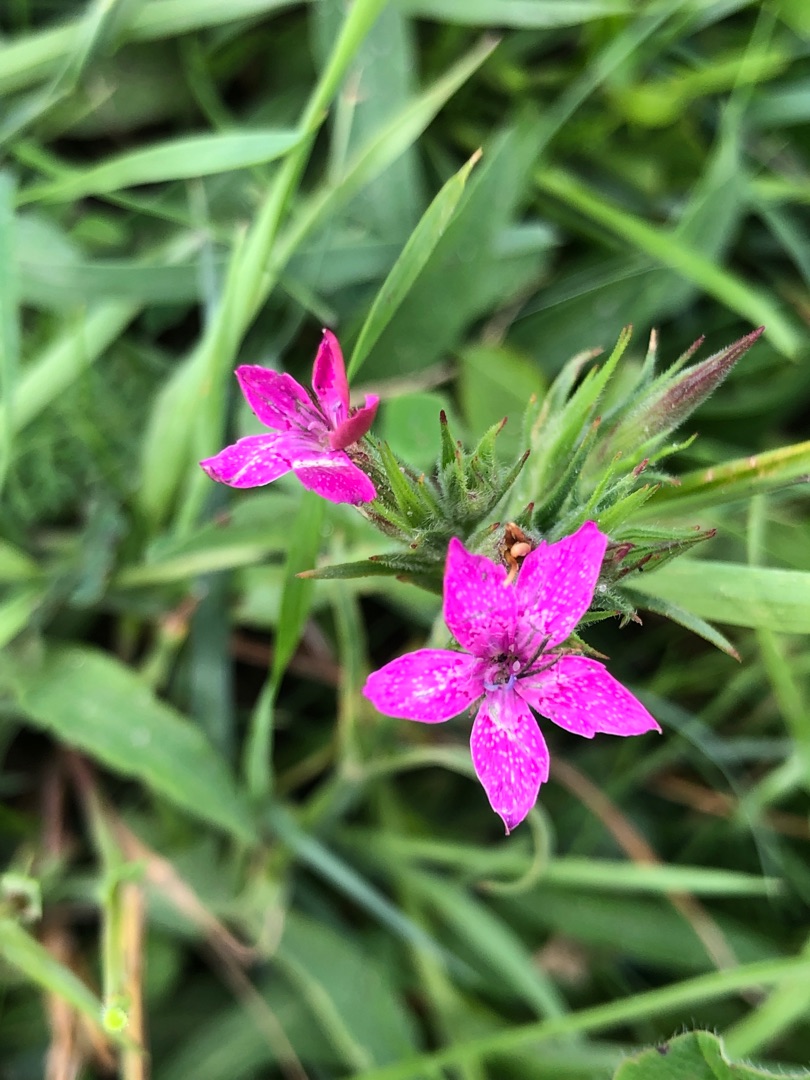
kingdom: Plantae
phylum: Tracheophyta
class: Magnoliopsida
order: Caryophyllales
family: Caryophyllaceae
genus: Dianthus
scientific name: Dianthus armeria
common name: Kost-nellike
